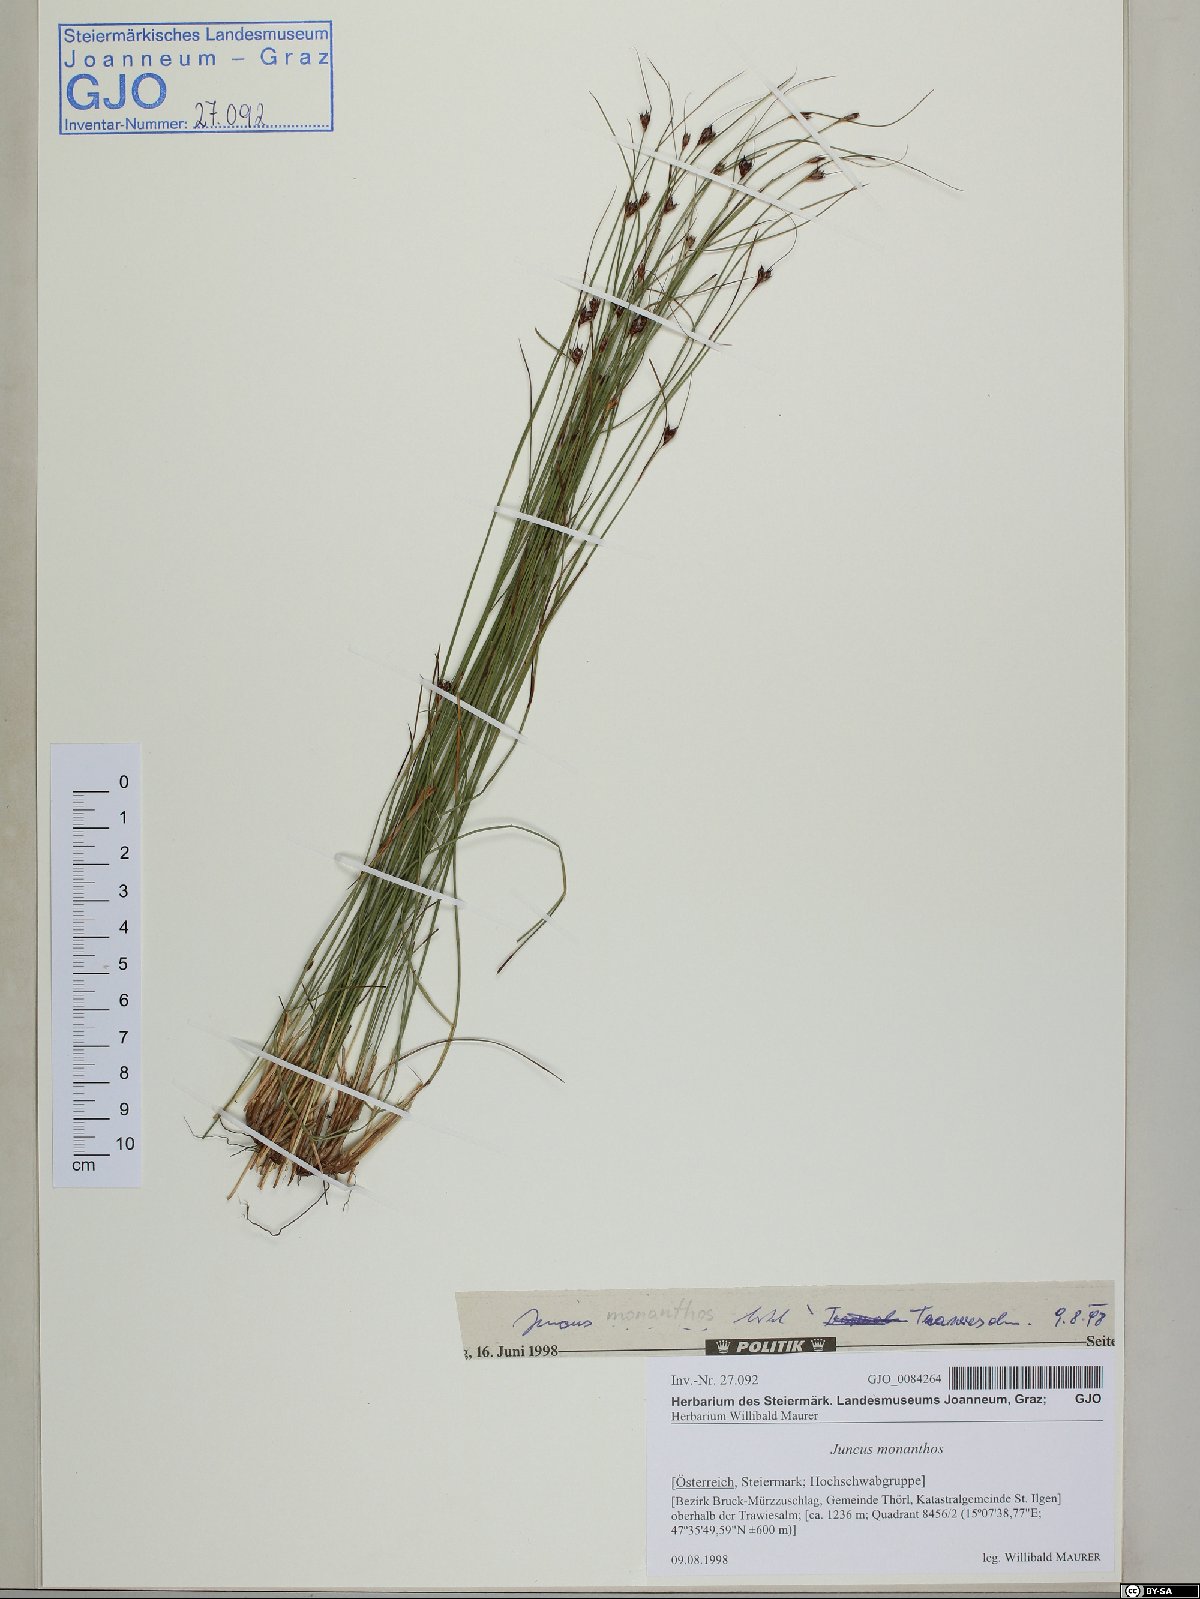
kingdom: Plantae
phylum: Tracheophyta
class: Liliopsida
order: Poales
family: Juncaceae
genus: Oreojuncus
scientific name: Oreojuncus monanthos
